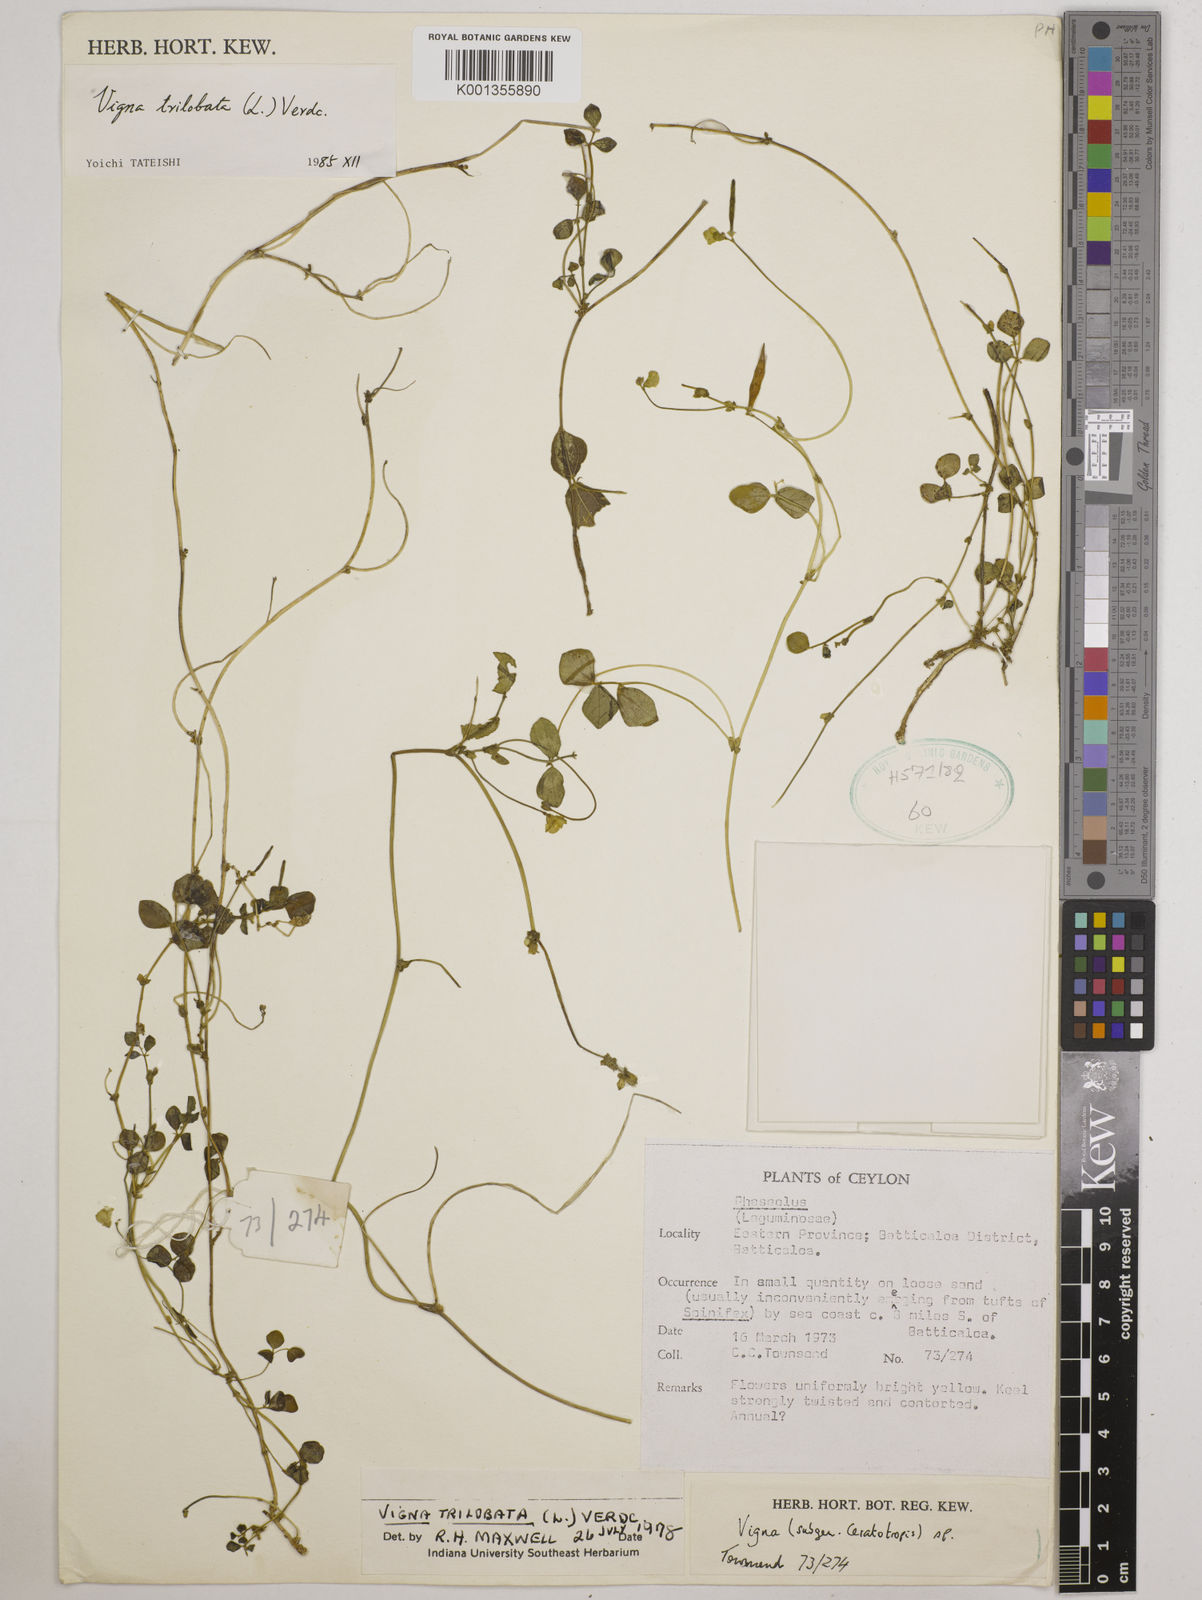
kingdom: Plantae
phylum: Tracheophyta
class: Magnoliopsida
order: Fabales
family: Fabaceae
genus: Vigna
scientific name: Vigna trilobata
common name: Jungli-bean
